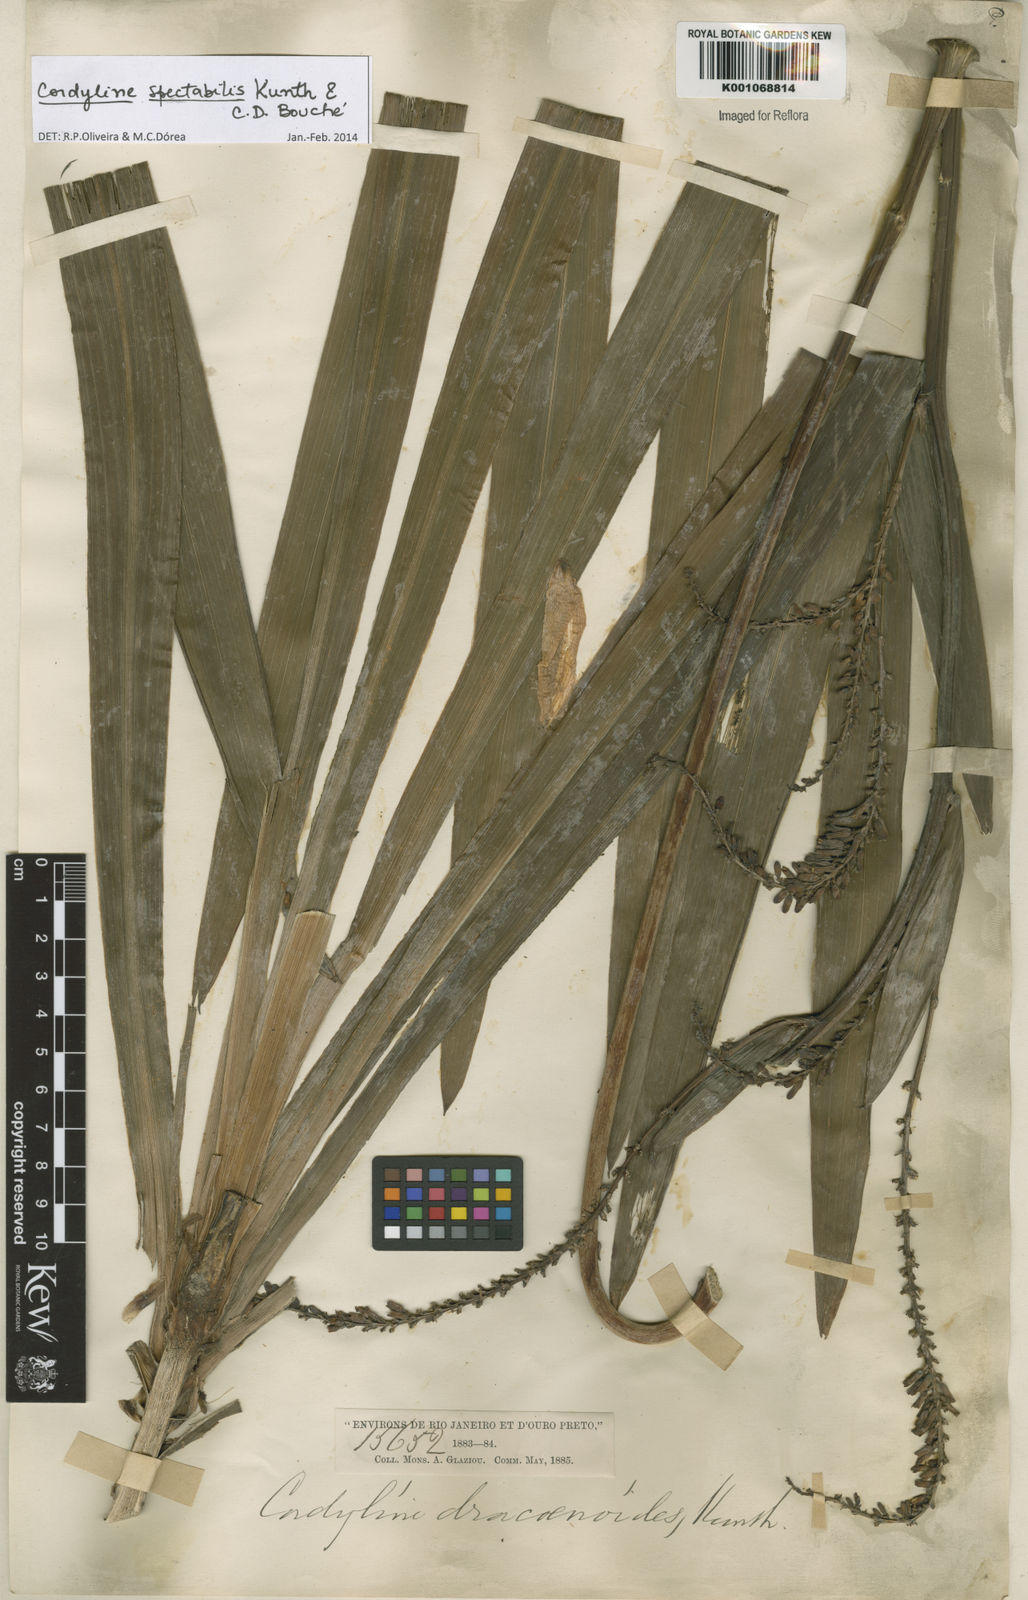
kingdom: Plantae
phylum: Tracheophyta
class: Liliopsida
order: Asparagales
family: Asparagaceae
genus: Cordyline
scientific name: Cordyline
